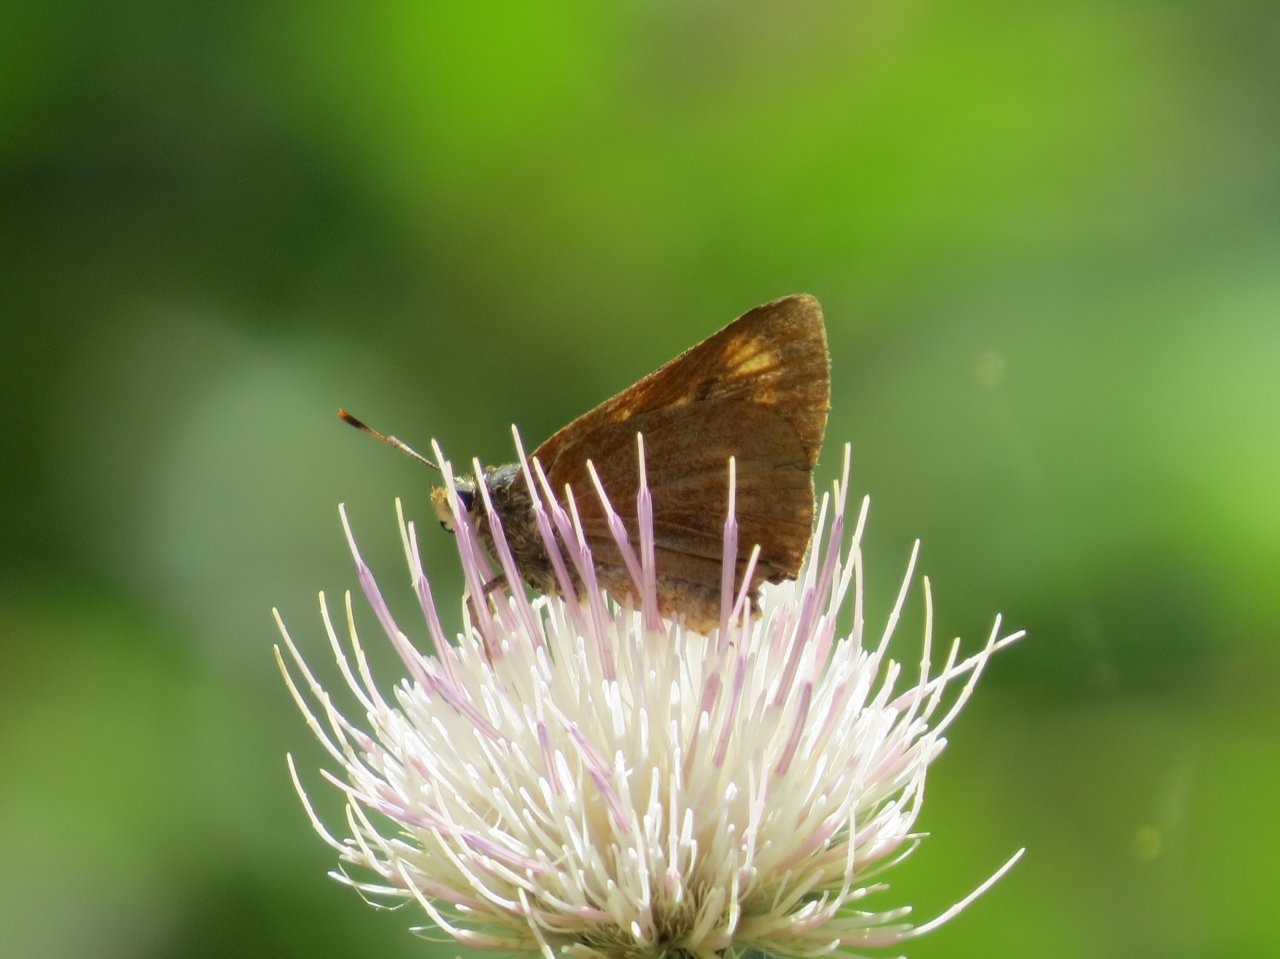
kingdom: Animalia
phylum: Arthropoda
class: Insecta
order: Lepidoptera
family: Hesperiidae
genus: Problema
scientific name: Problema byssus
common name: Byssus Skipper
